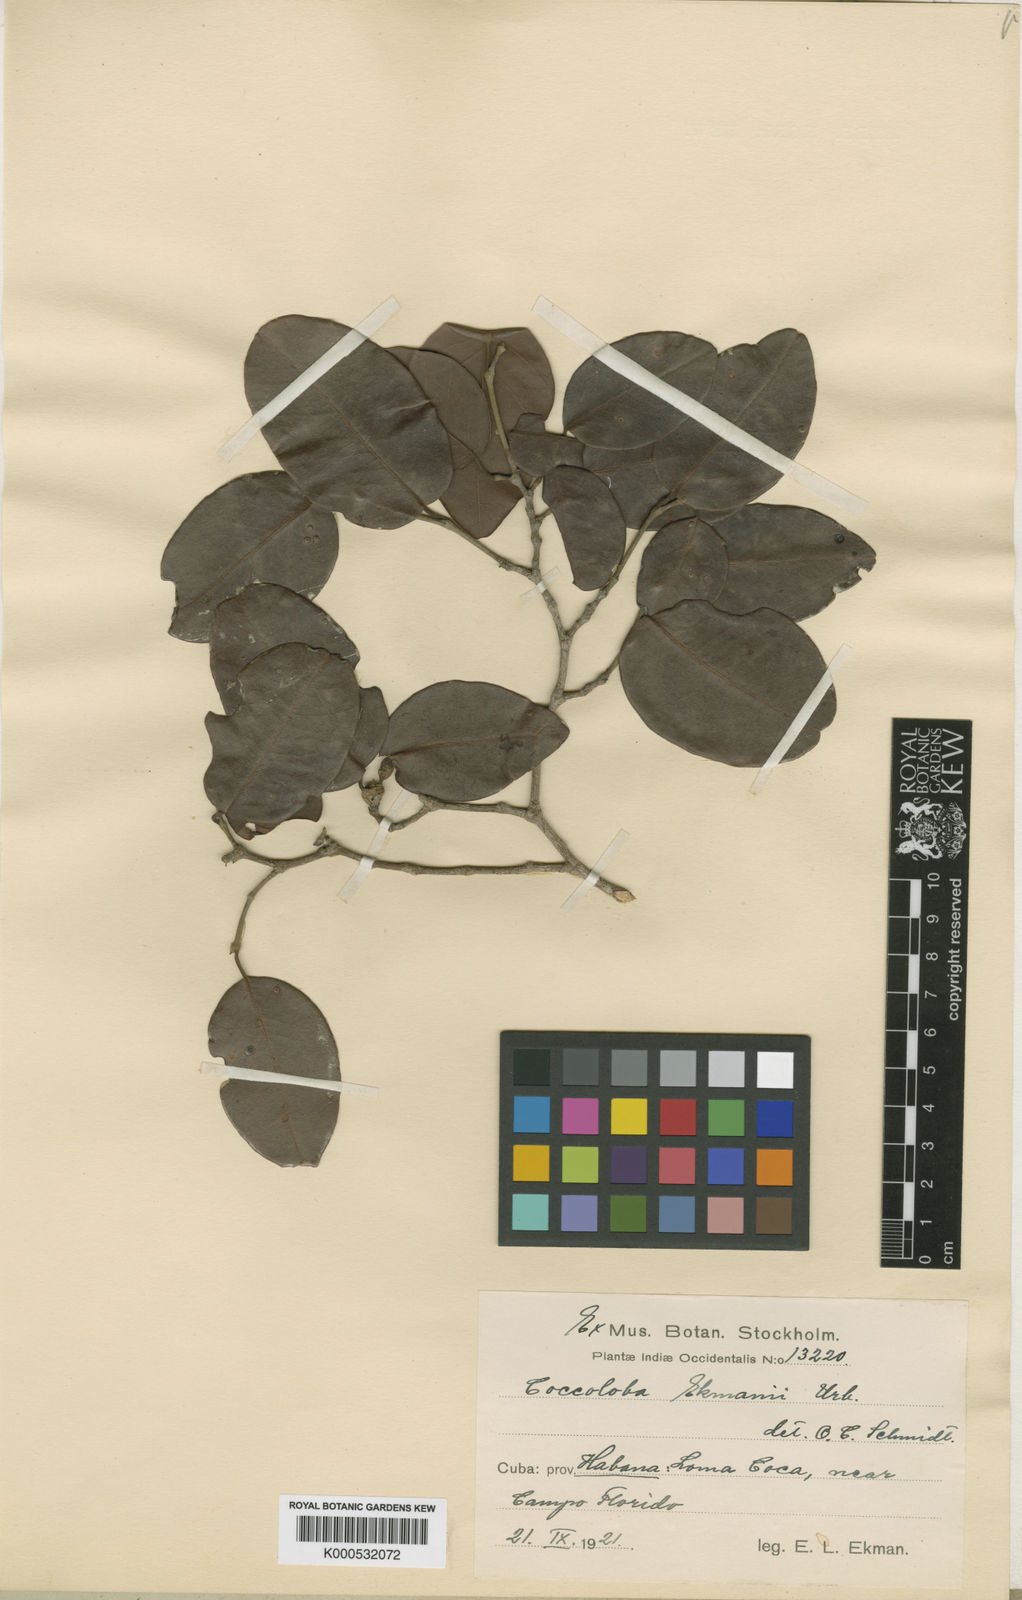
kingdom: Plantae
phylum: Tracheophyta
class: Magnoliopsida
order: Caryophyllales
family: Polygonaceae
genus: Coccoloba
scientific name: Coccoloba praecox
